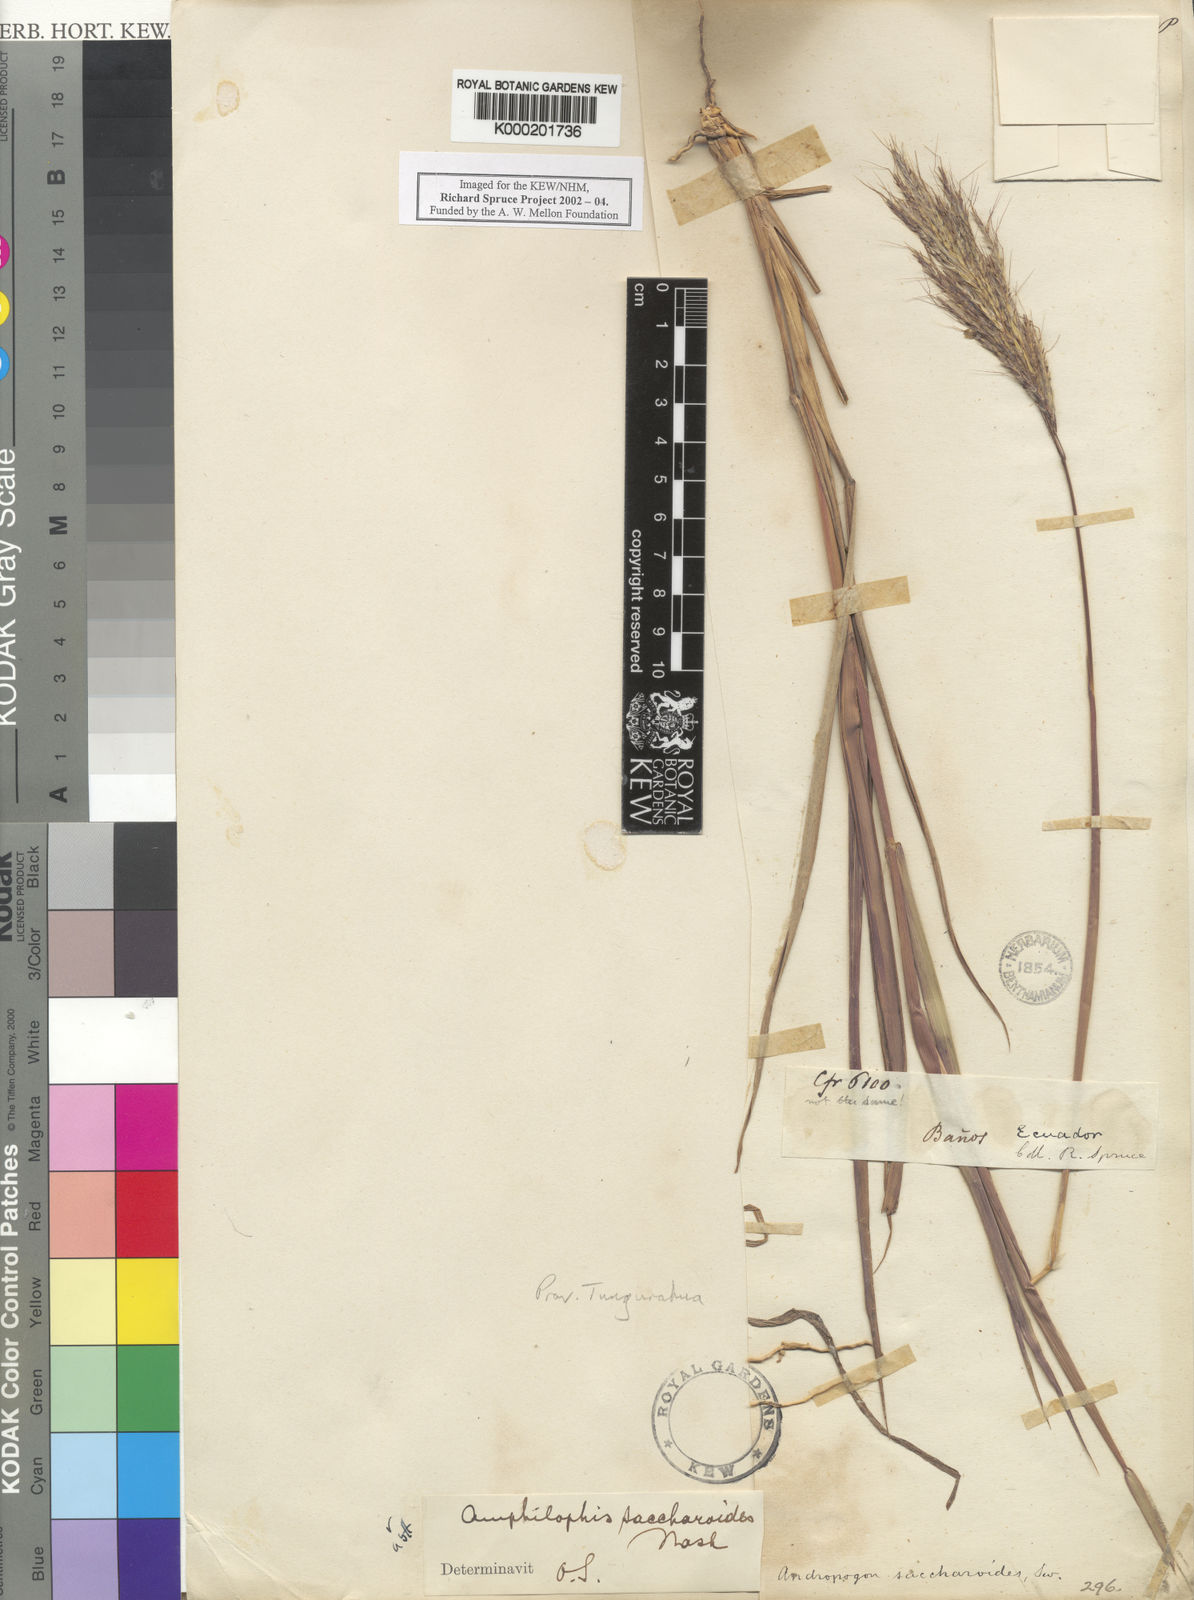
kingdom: Plantae
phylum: Tracheophyta
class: Liliopsida
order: Poales
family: Poaceae
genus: Bothriochloa
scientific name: Bothriochloa saccharoides
